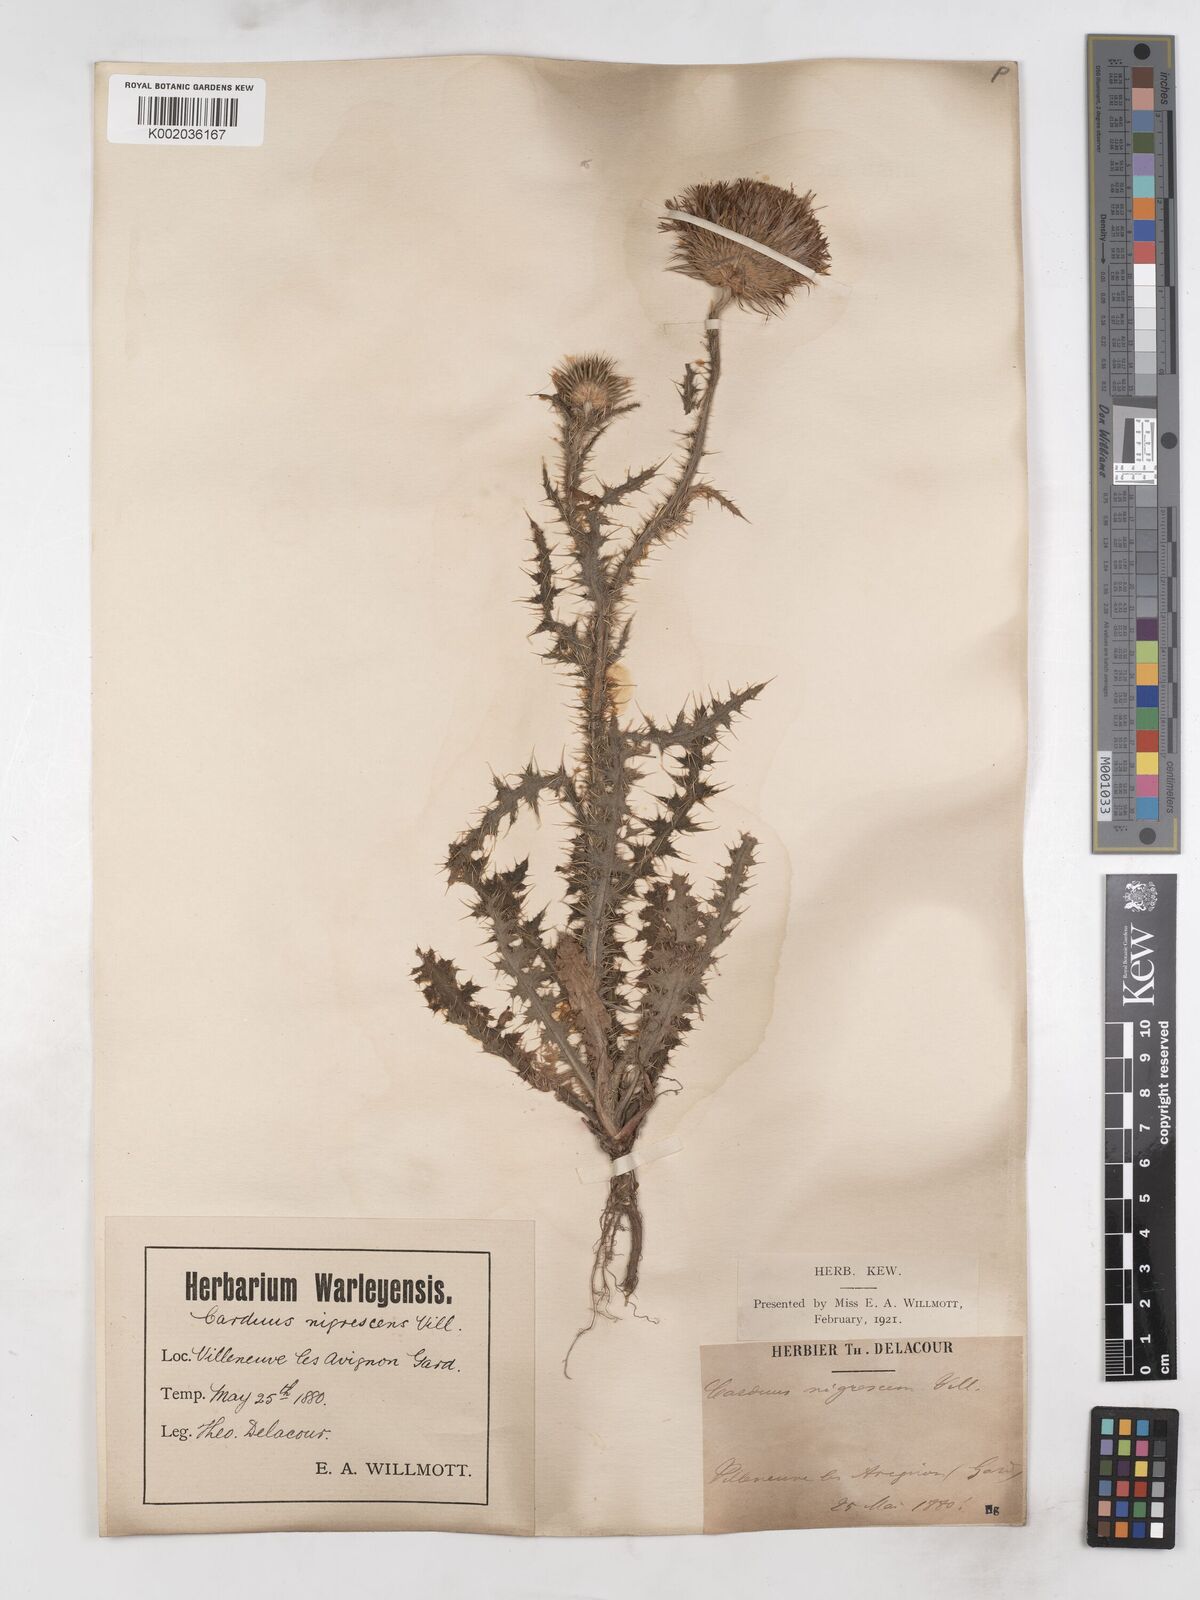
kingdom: Plantae
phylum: Tracheophyta
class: Magnoliopsida
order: Asterales
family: Asteraceae
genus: Carduus
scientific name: Carduus nigrescens
